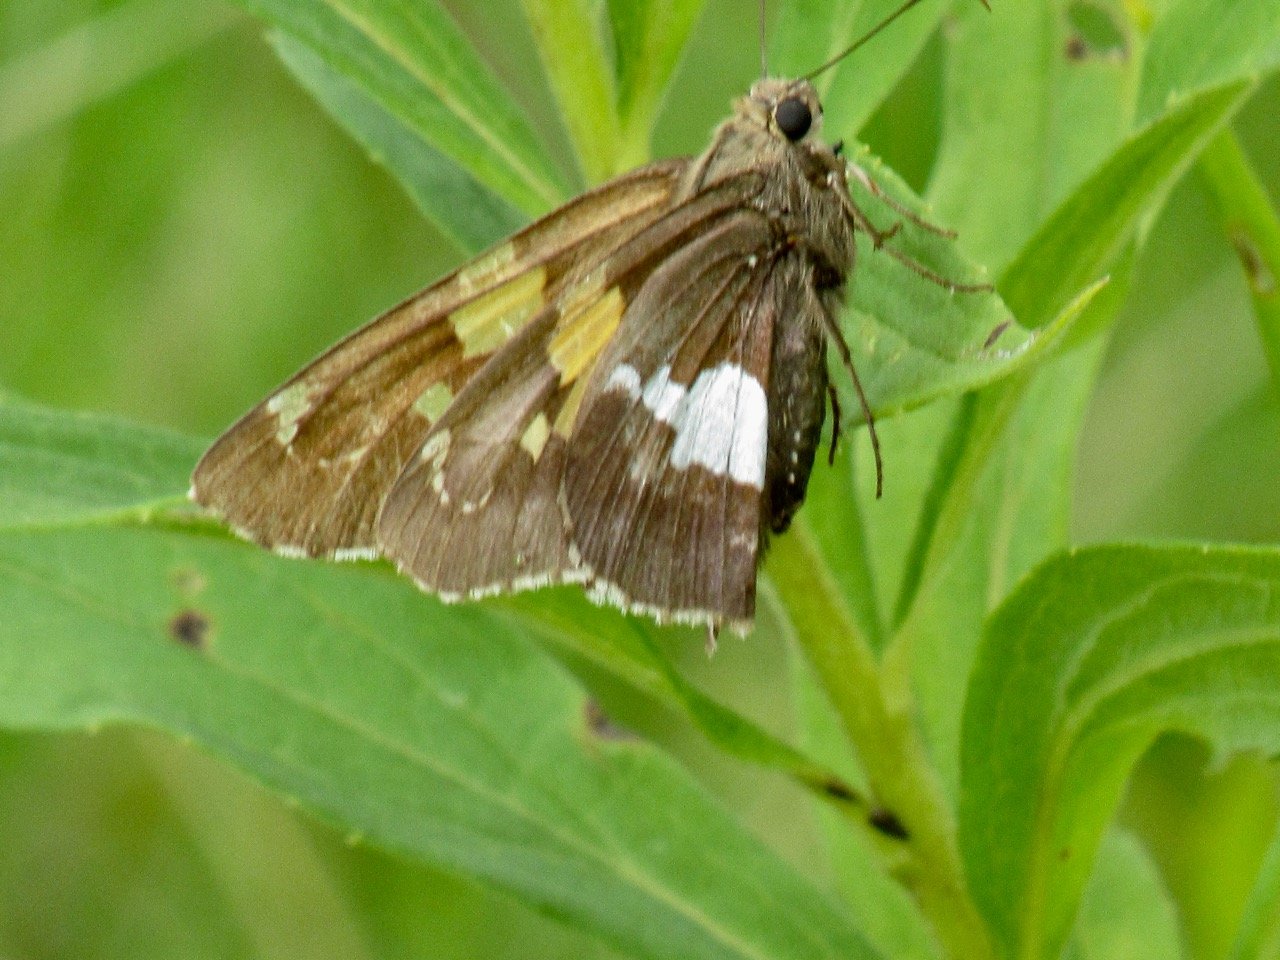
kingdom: Animalia
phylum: Arthropoda
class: Insecta
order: Lepidoptera
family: Hesperiidae
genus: Epargyreus
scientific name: Epargyreus clarus
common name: Silver-spotted Skipper
